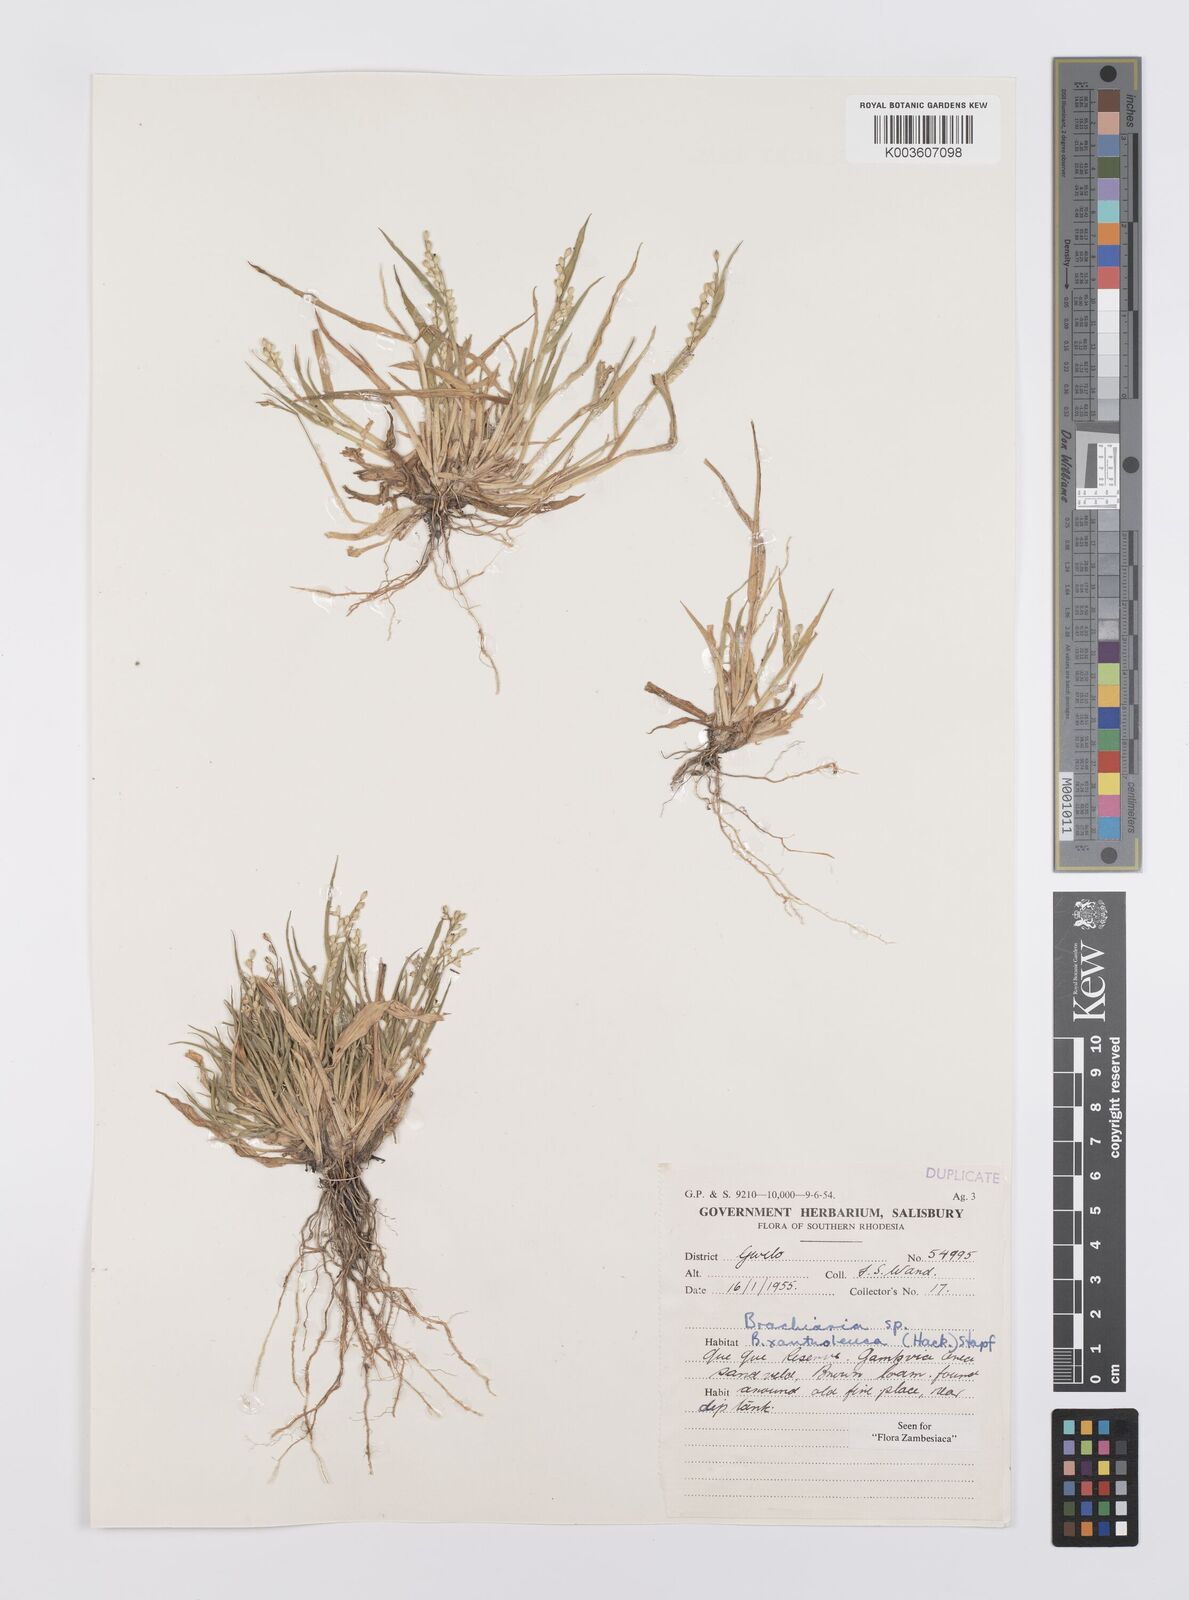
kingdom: Plantae
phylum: Tracheophyta
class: Liliopsida
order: Poales
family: Poaceae
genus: Urochloa
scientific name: Urochloa xantholeuca
